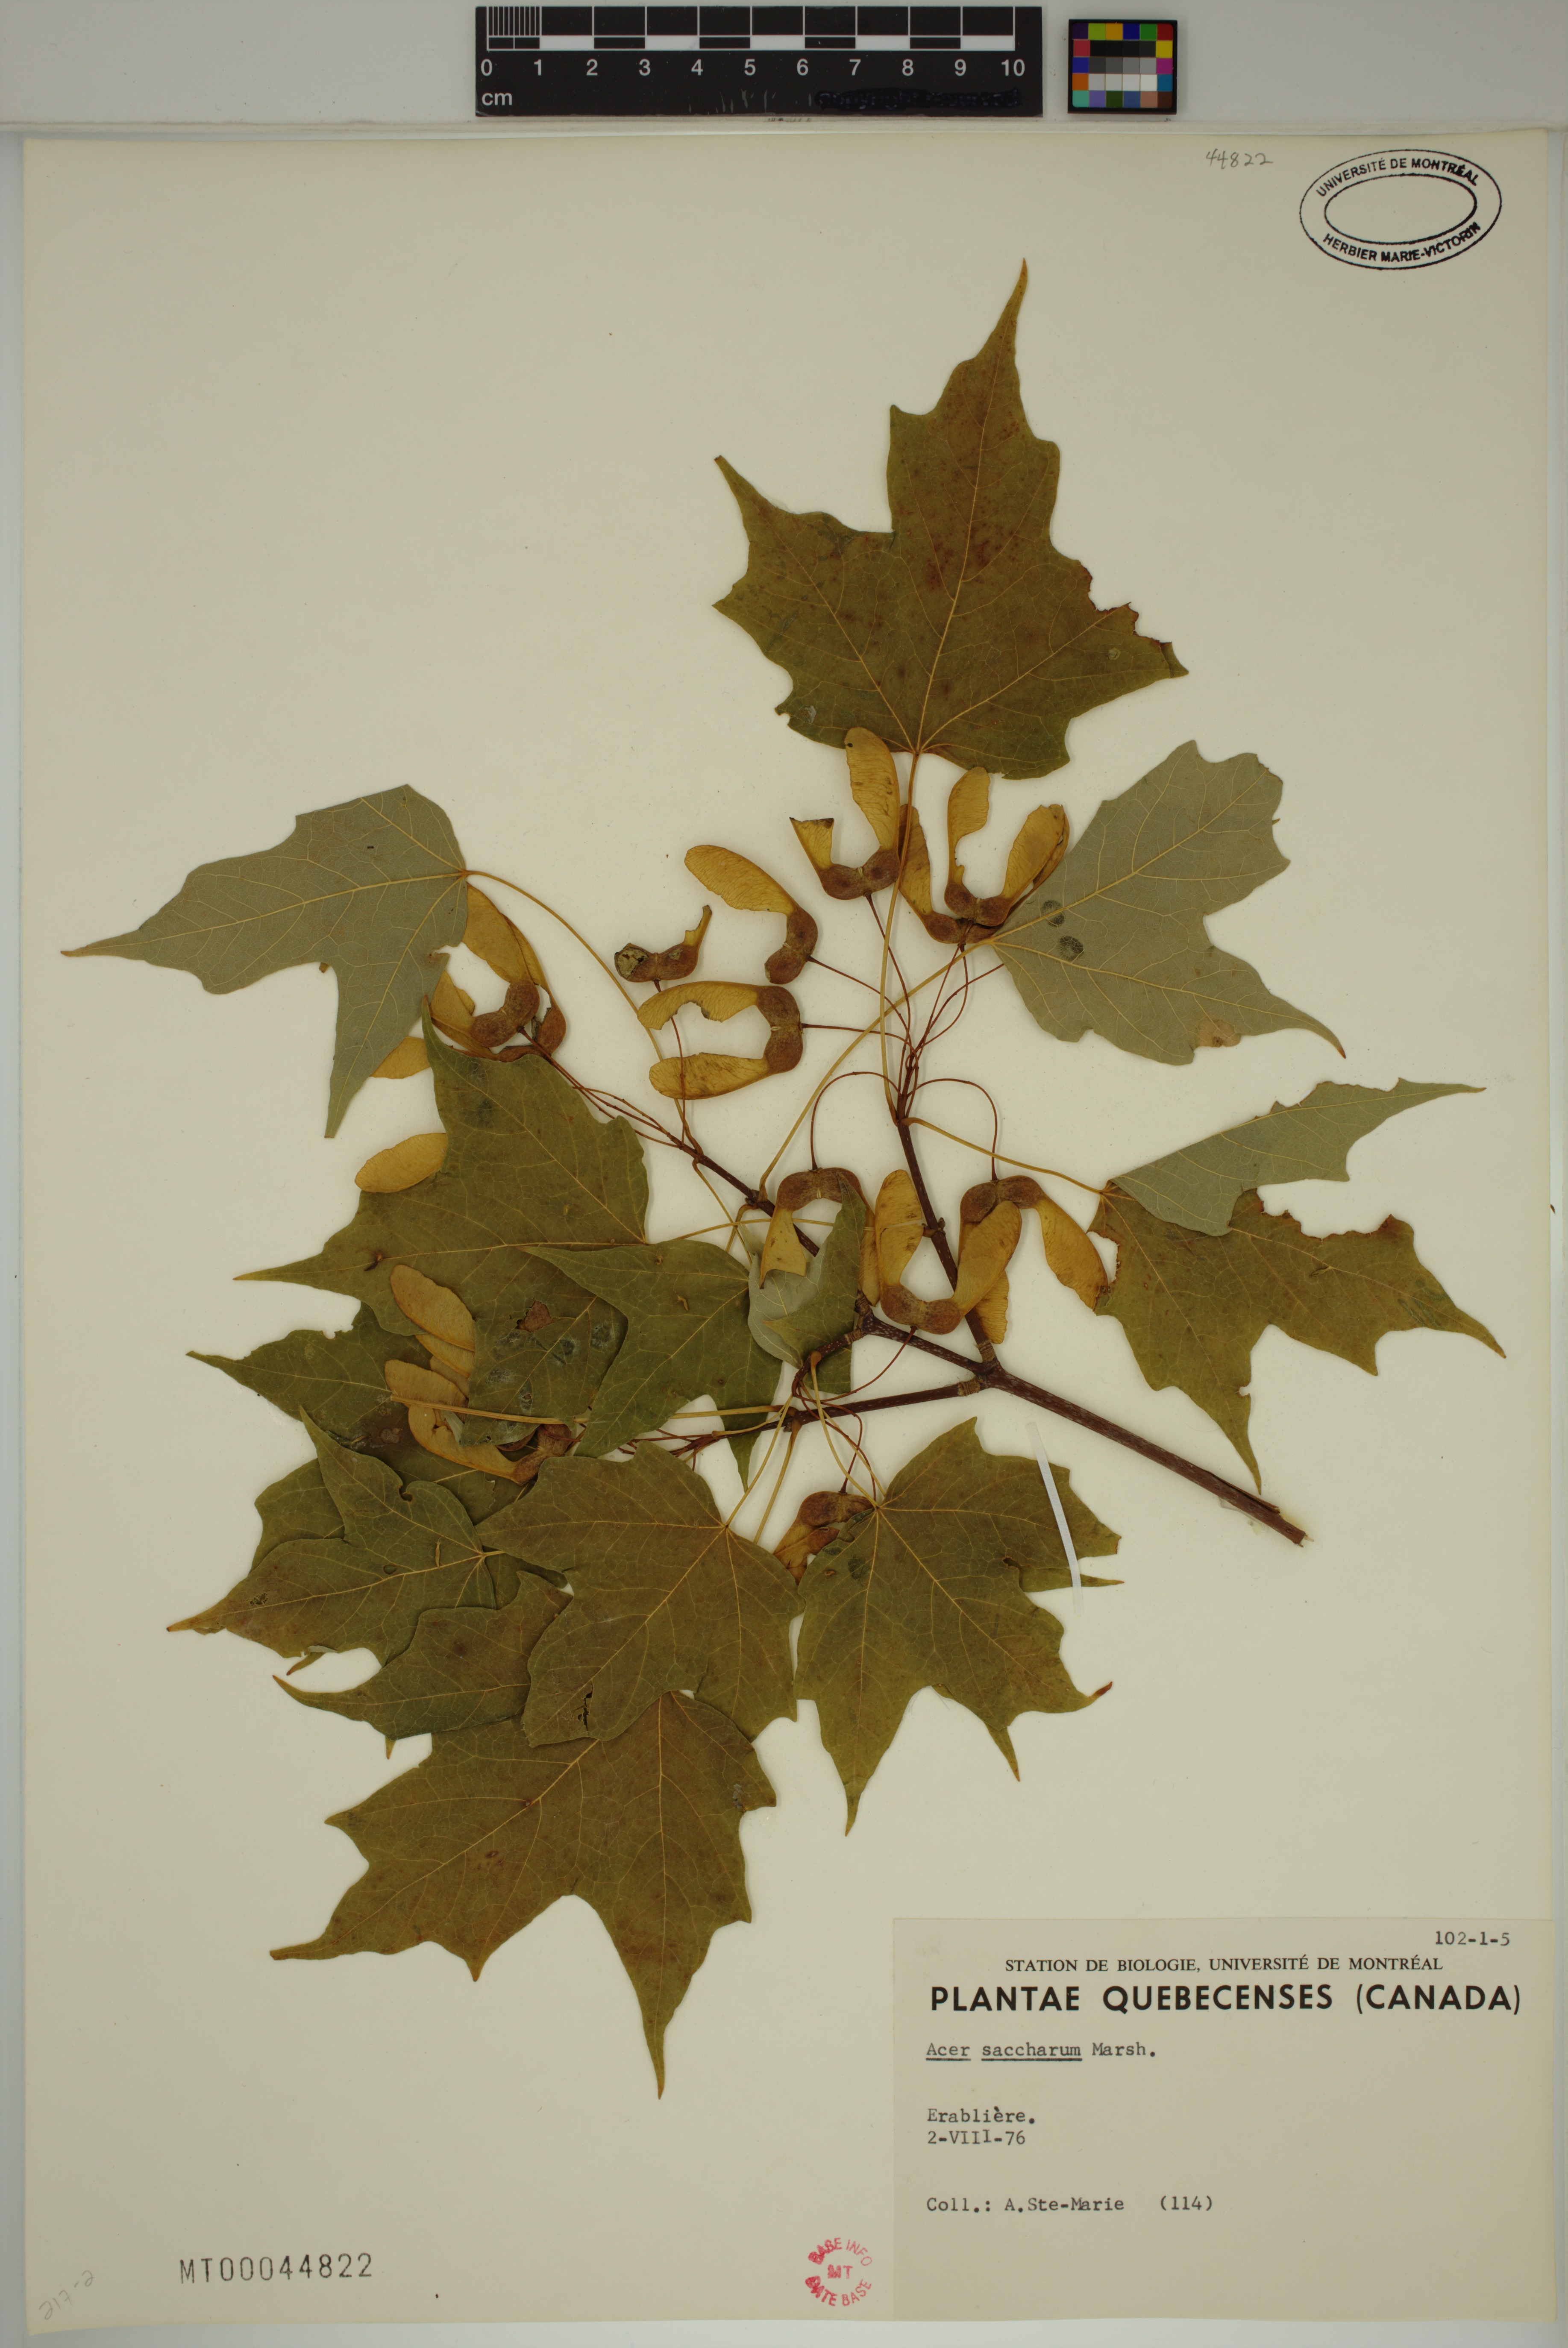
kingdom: Plantae
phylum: Tracheophyta
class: Magnoliopsida
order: Sapindales
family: Sapindaceae
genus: Acer
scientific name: Acer saccharum
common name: Sugar maple
